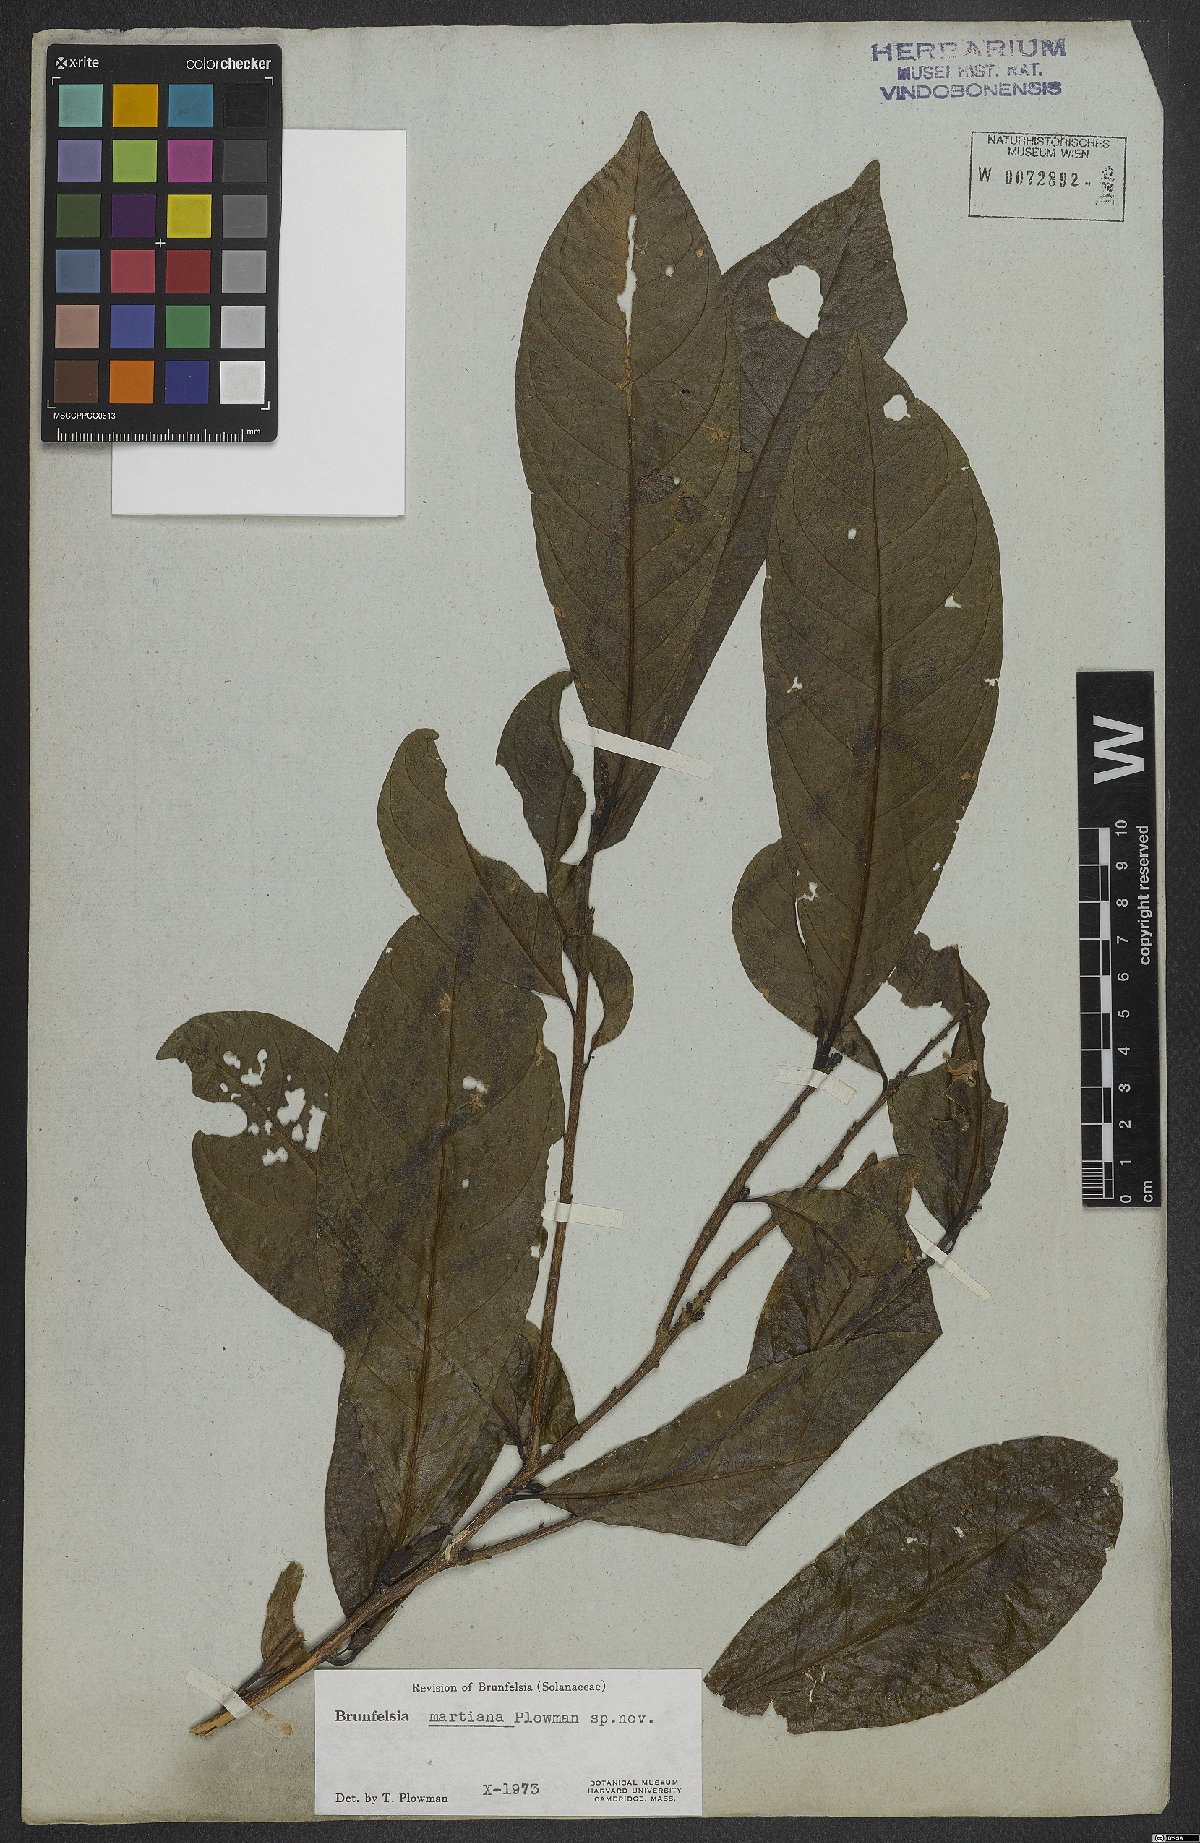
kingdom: Plantae
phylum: Tracheophyta
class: Magnoliopsida
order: Solanales
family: Solanaceae
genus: Brunfelsia
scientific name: Brunfelsia martiana
